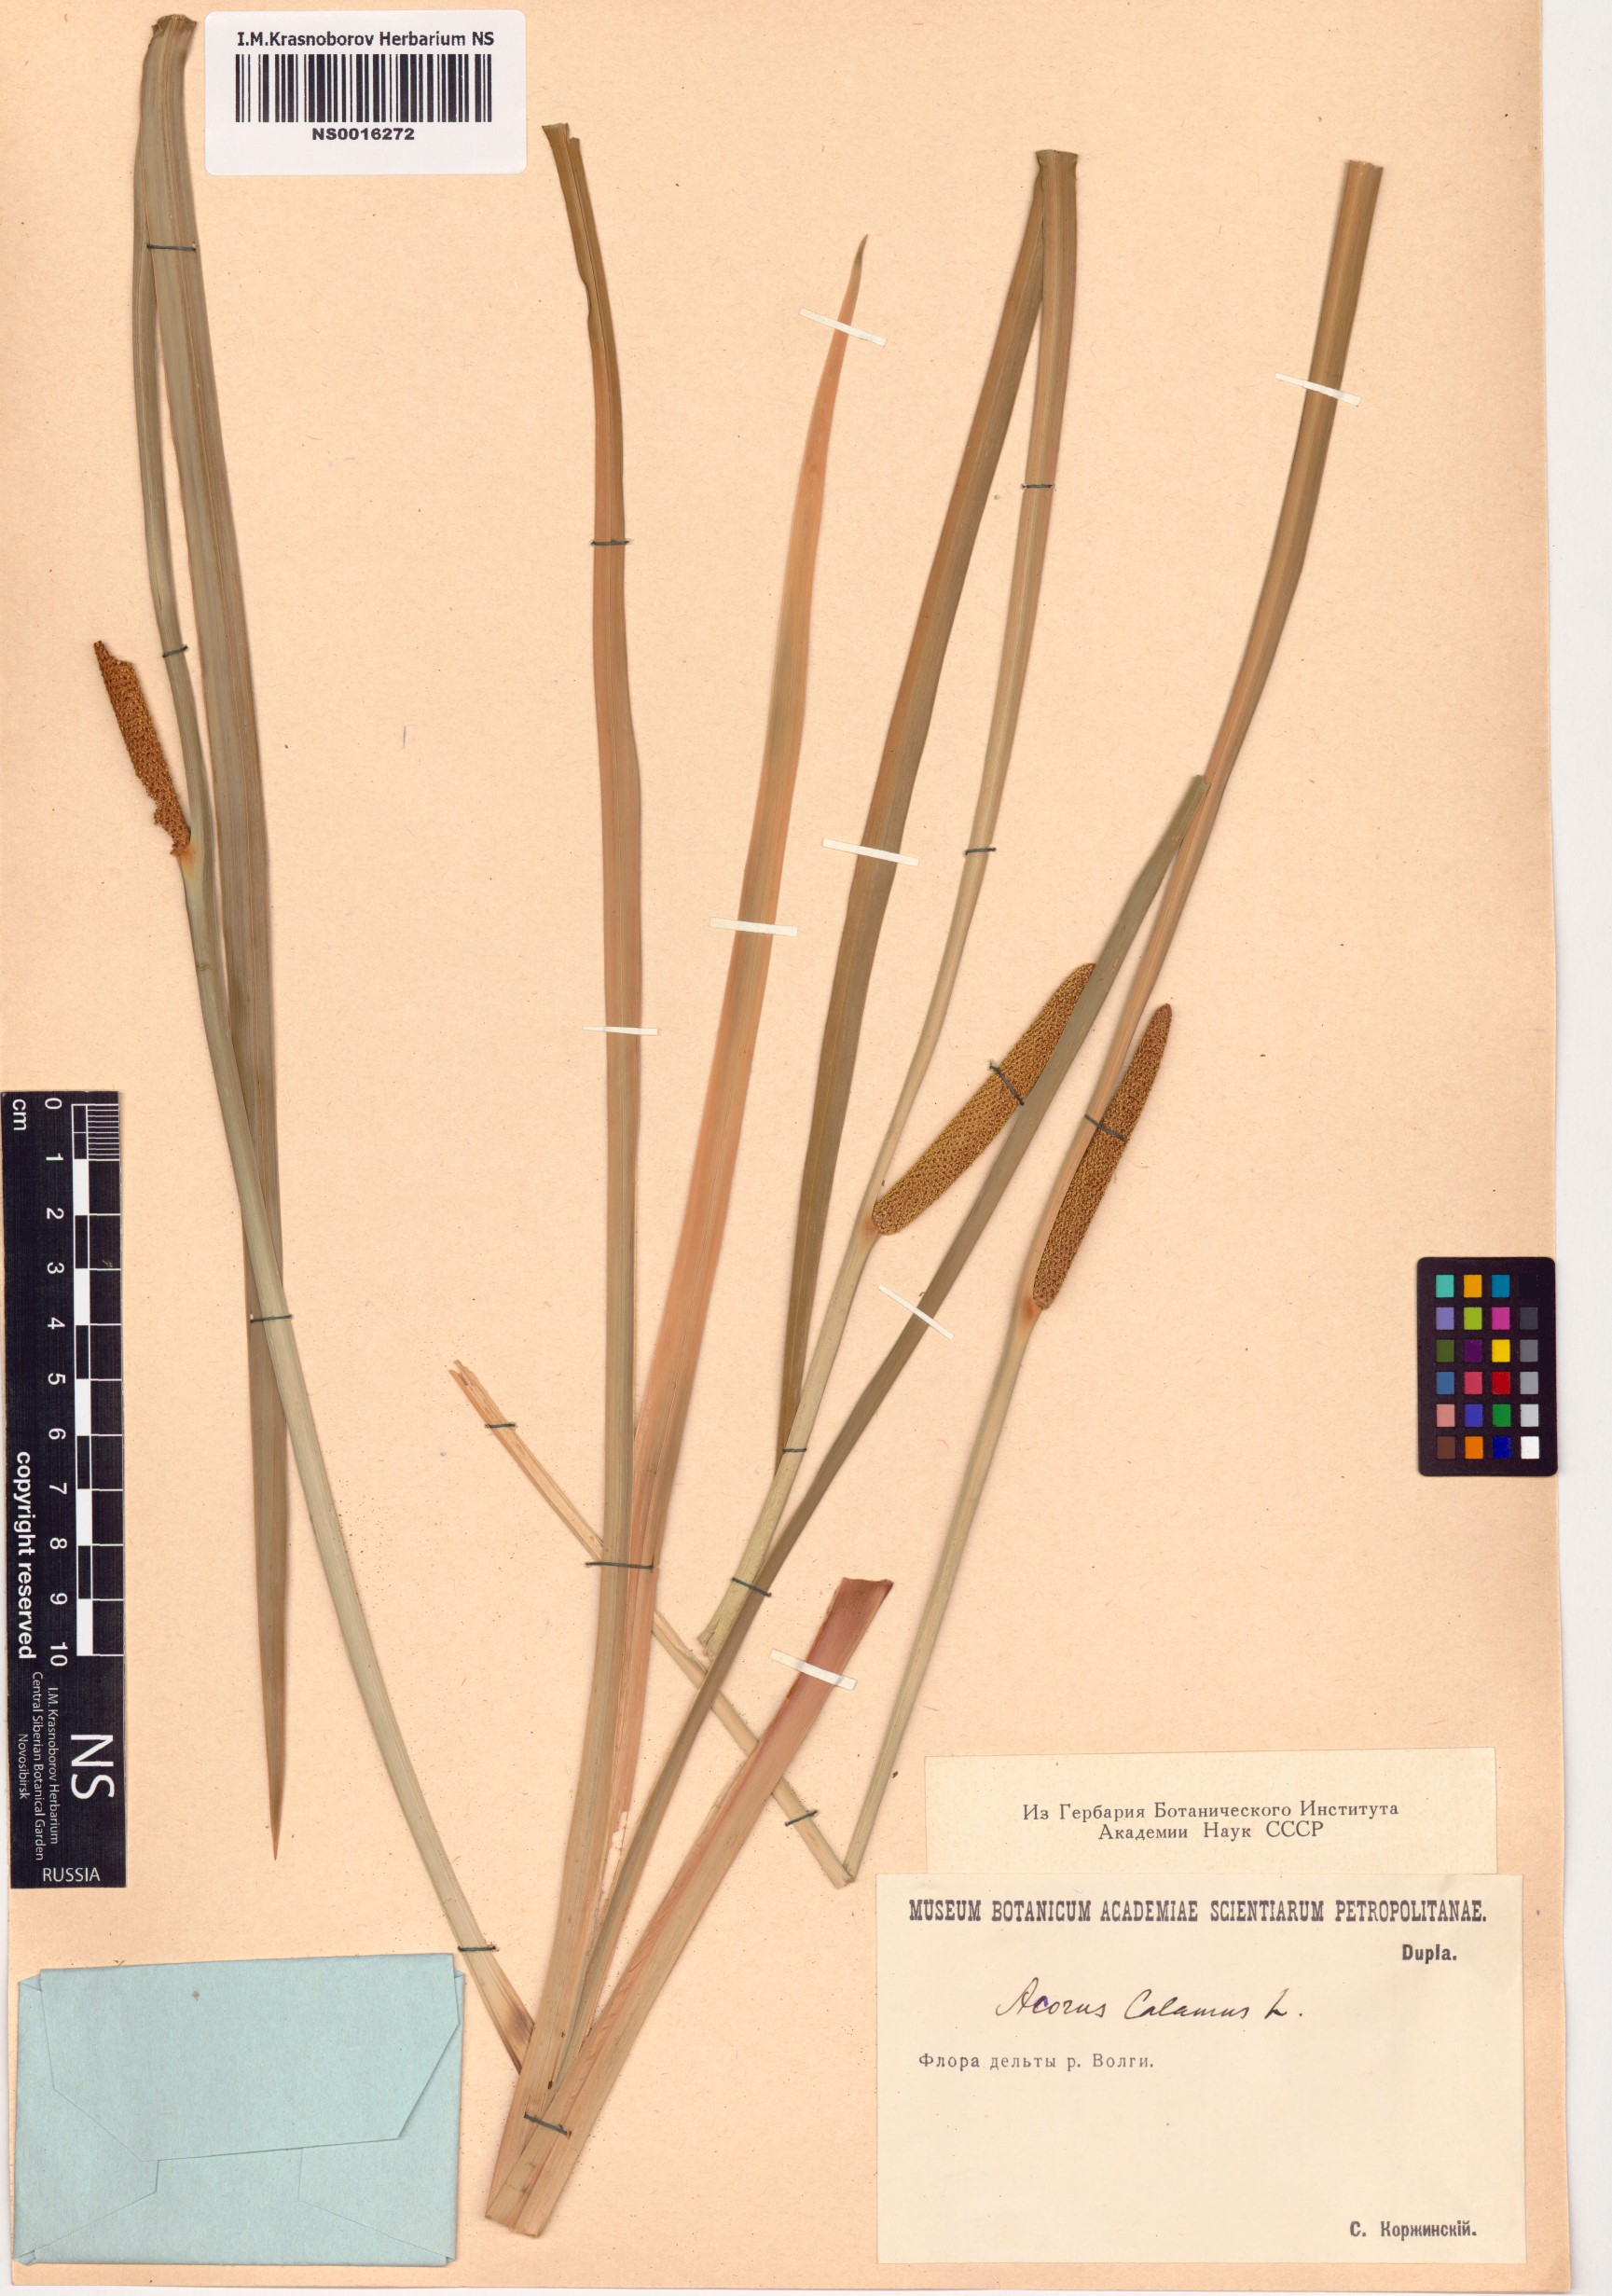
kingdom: Plantae
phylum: Tracheophyta
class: Liliopsida
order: Acorales
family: Acoraceae
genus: Acorus
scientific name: Acorus calamus
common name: Sweet-flag
